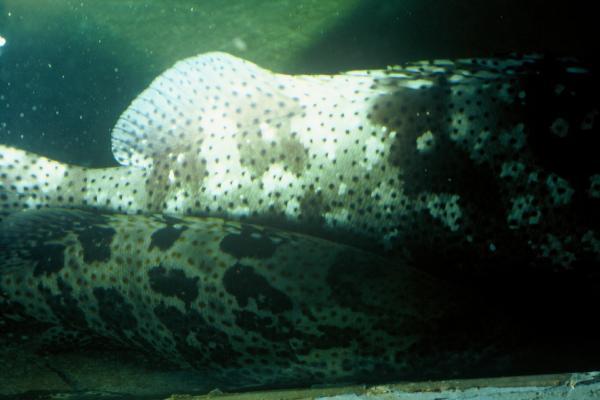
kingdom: Animalia
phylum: Chordata
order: Perciformes
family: Serranidae
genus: Epinephelus
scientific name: Epinephelus coioides
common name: Orange-spotted grouper
